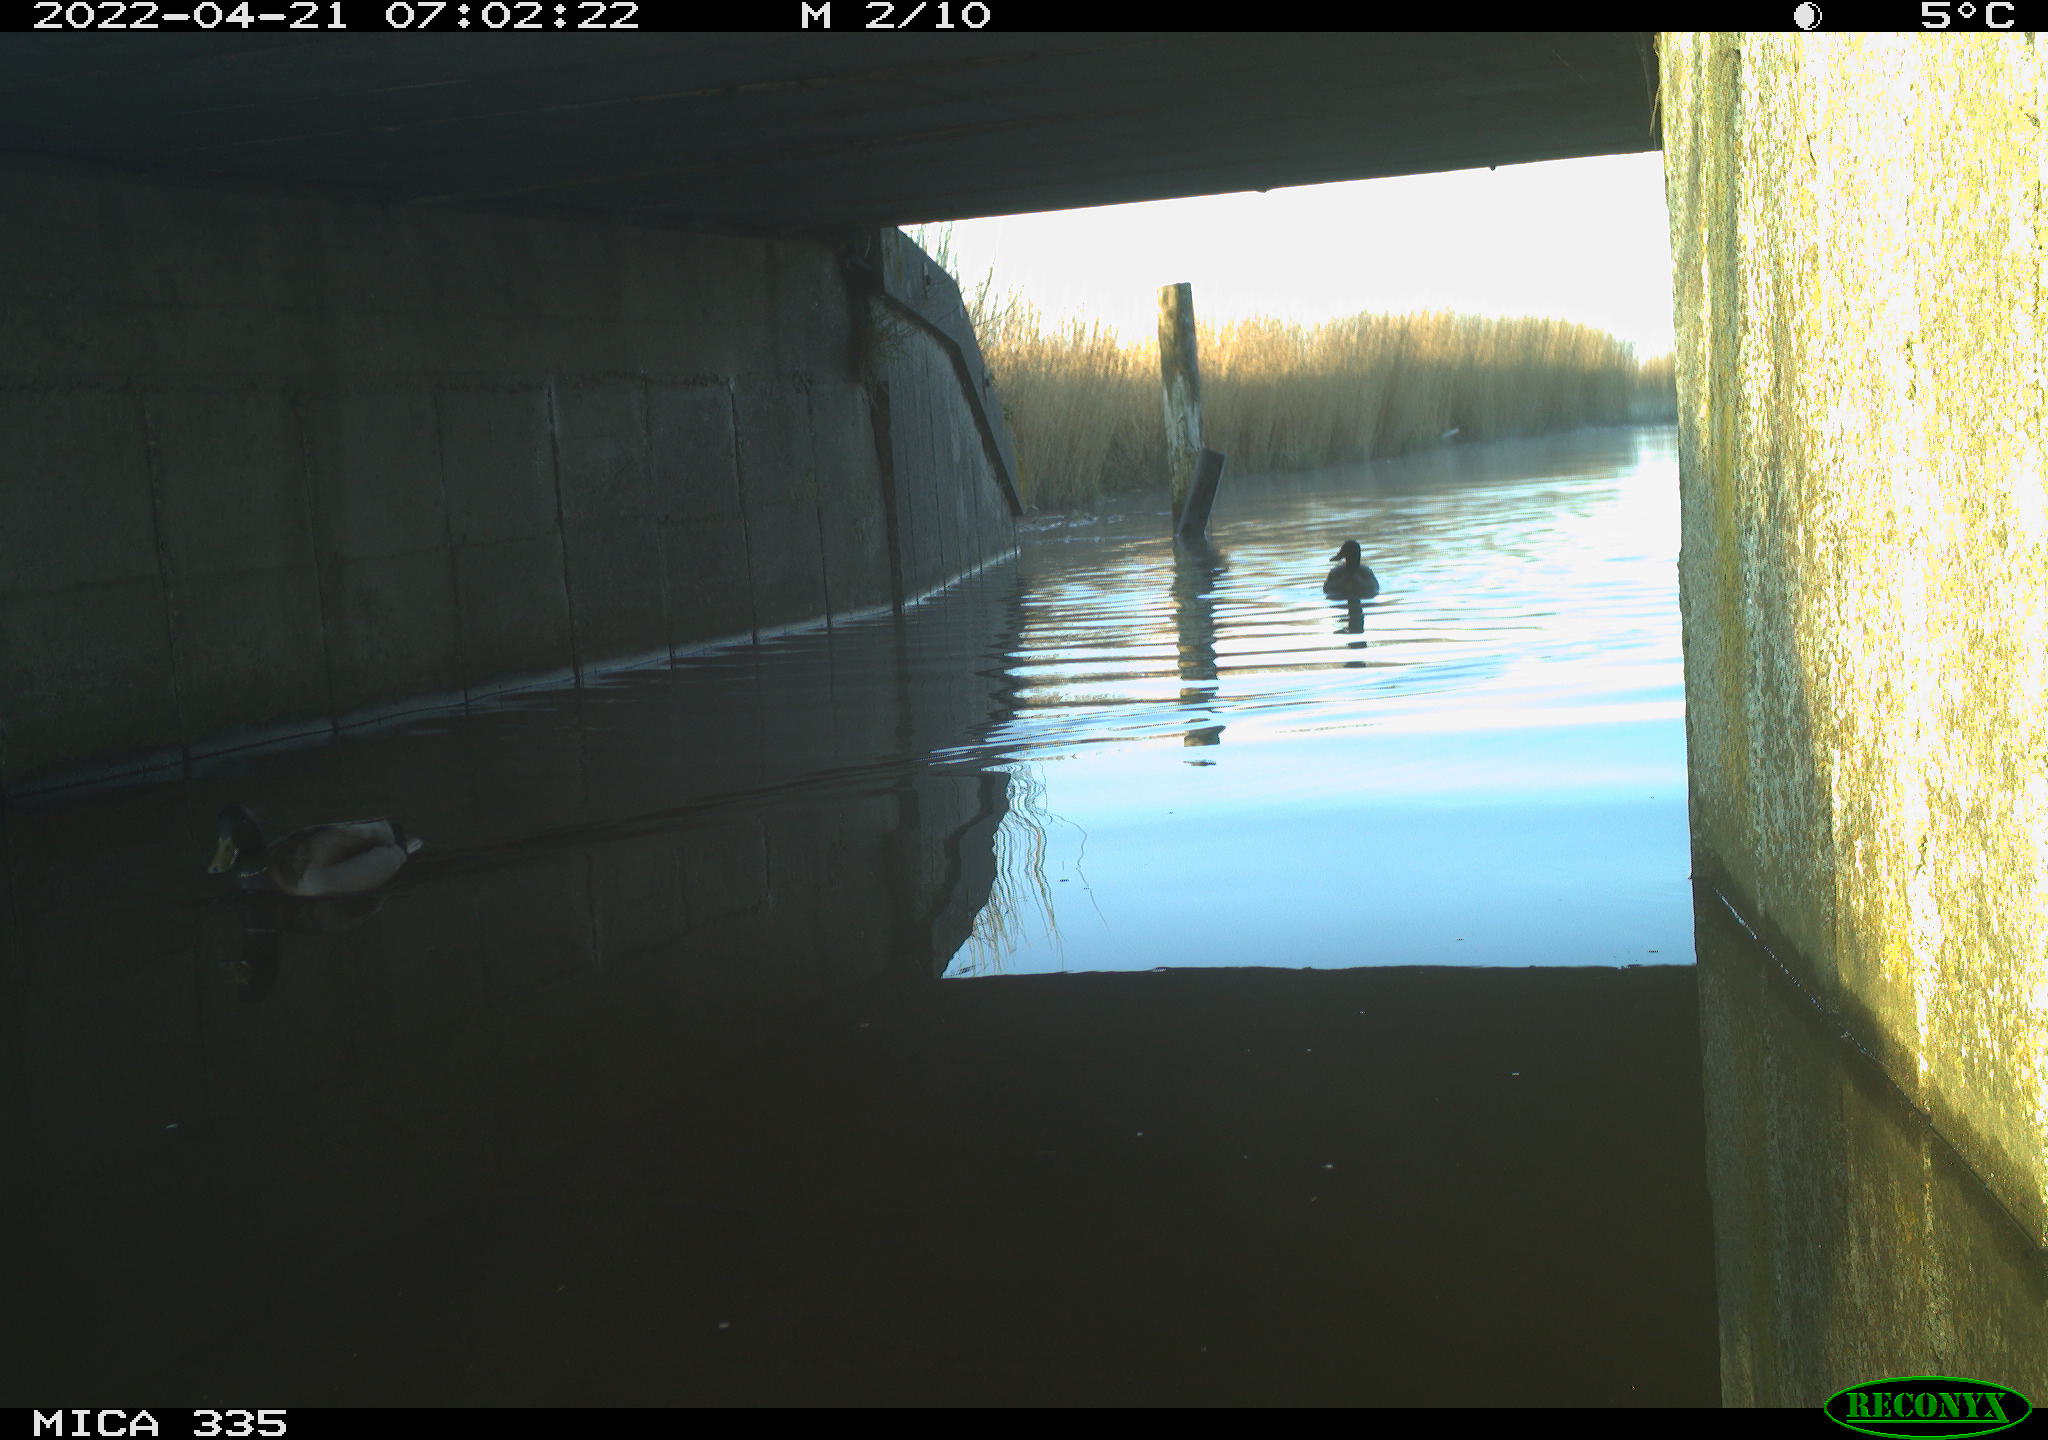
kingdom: Animalia
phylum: Chordata
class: Aves
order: Anseriformes
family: Anatidae
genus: Anas
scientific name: Anas platyrhynchos
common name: Mallard
